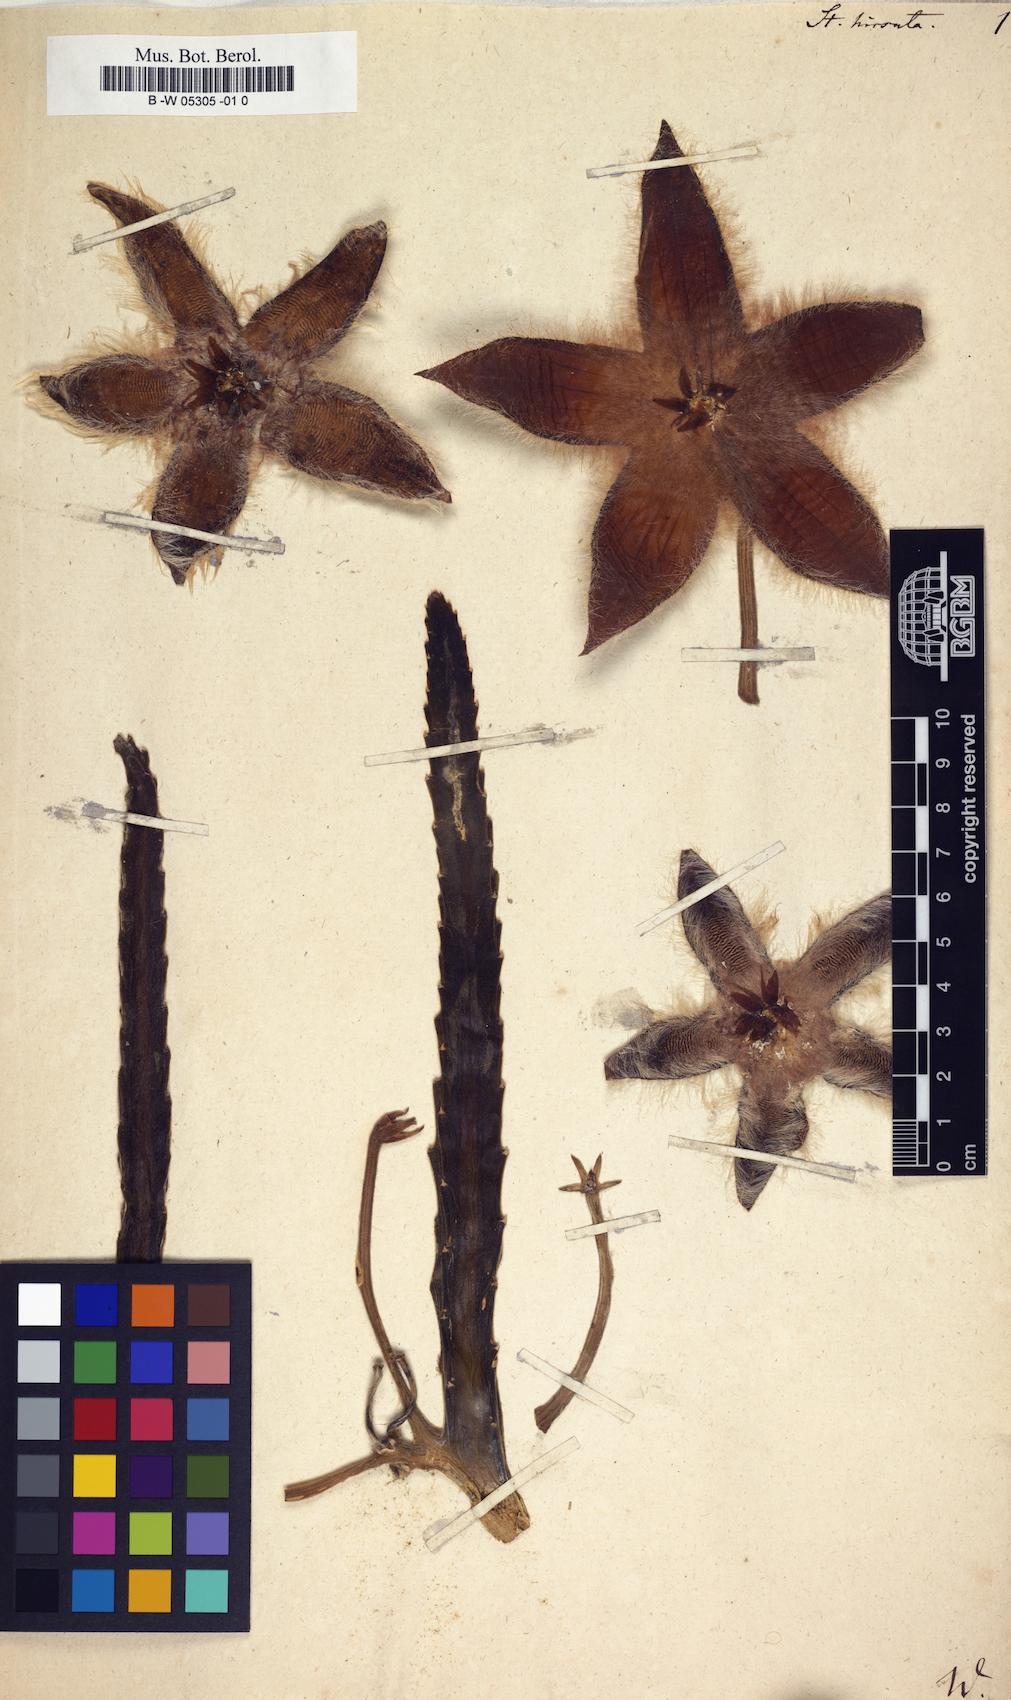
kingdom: Plantae
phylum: Tracheophyta
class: Magnoliopsida
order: Gentianales
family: Apocynaceae
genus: Ceropegia
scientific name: Ceropegia pulvinata
